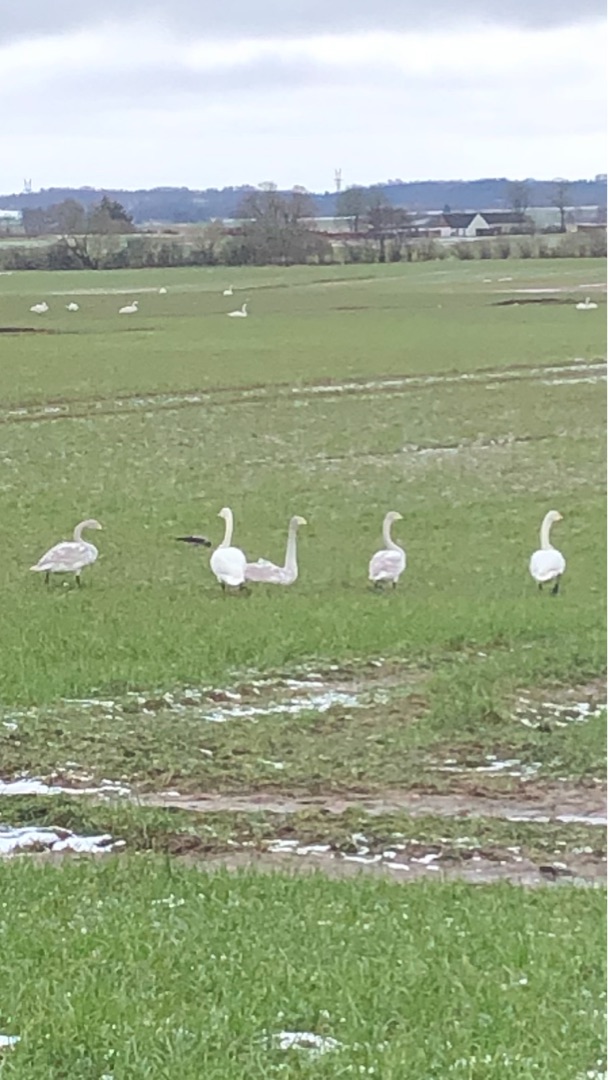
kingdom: Animalia
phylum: Chordata
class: Aves
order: Anseriformes
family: Anatidae
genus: Cygnus
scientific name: Cygnus cygnus
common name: Sangsvane
